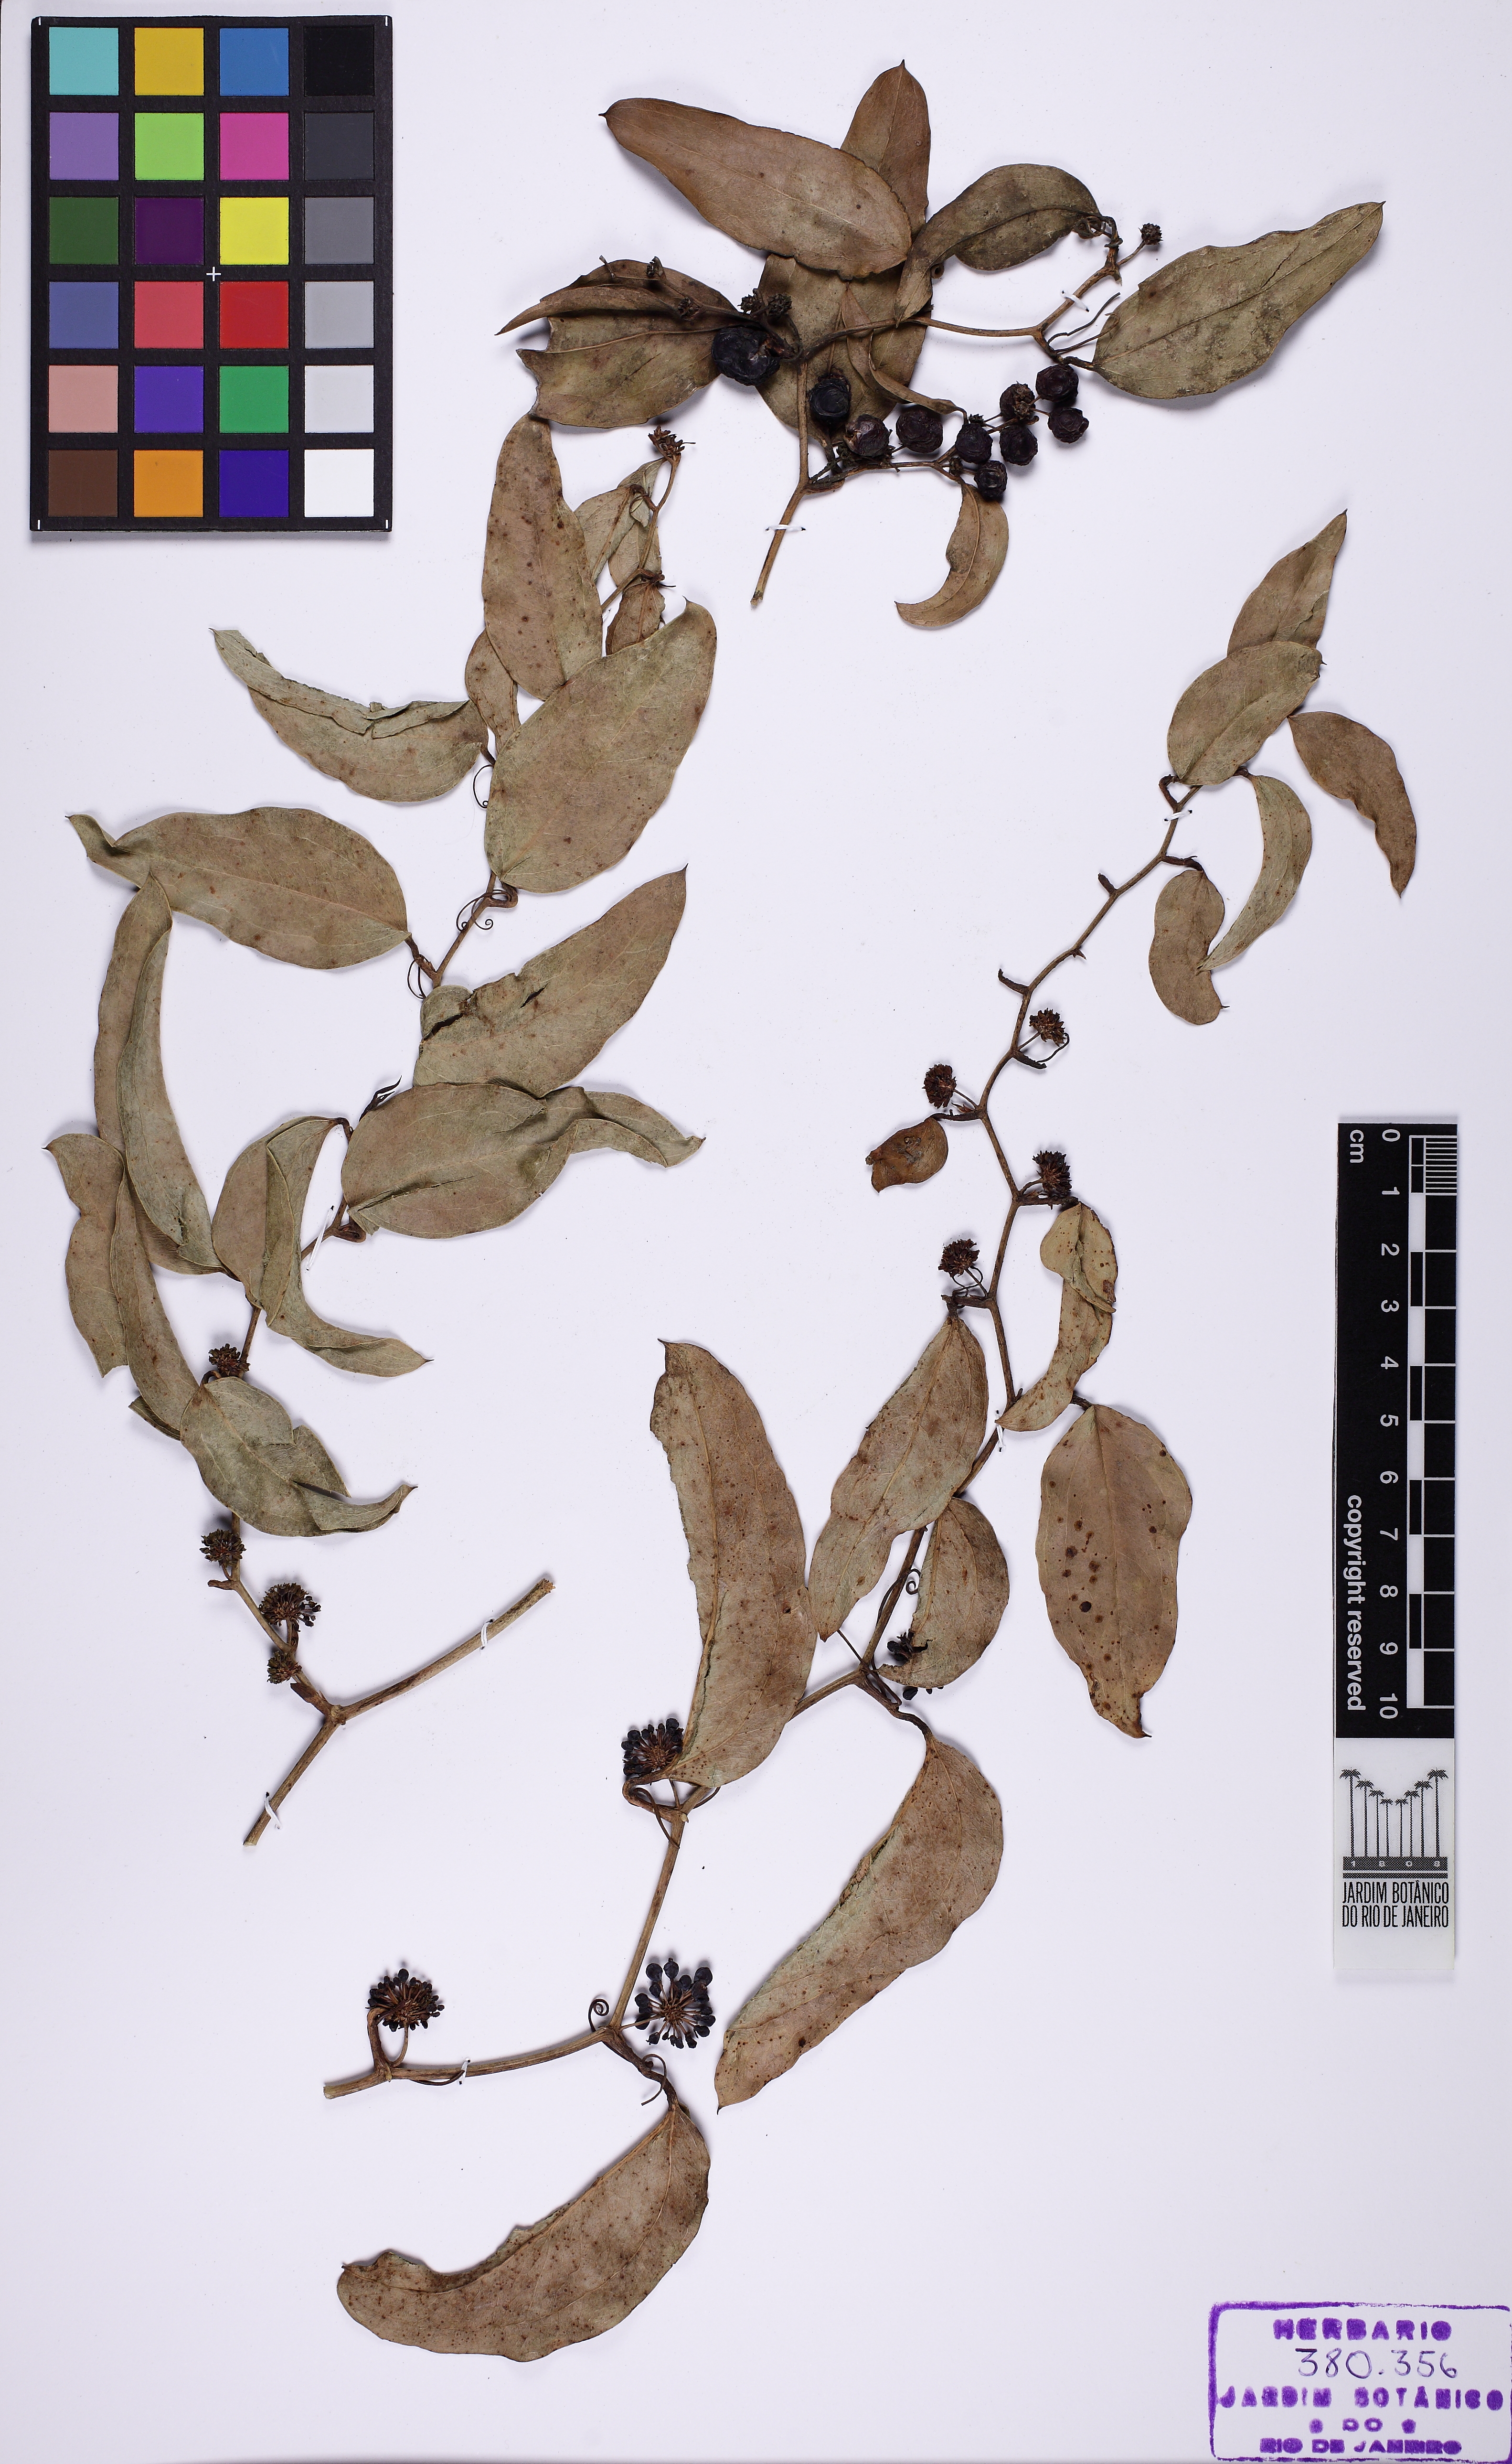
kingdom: Plantae
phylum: Tracheophyta
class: Liliopsida
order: Liliales
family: Smilacaceae
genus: Smilax
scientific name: Smilax
